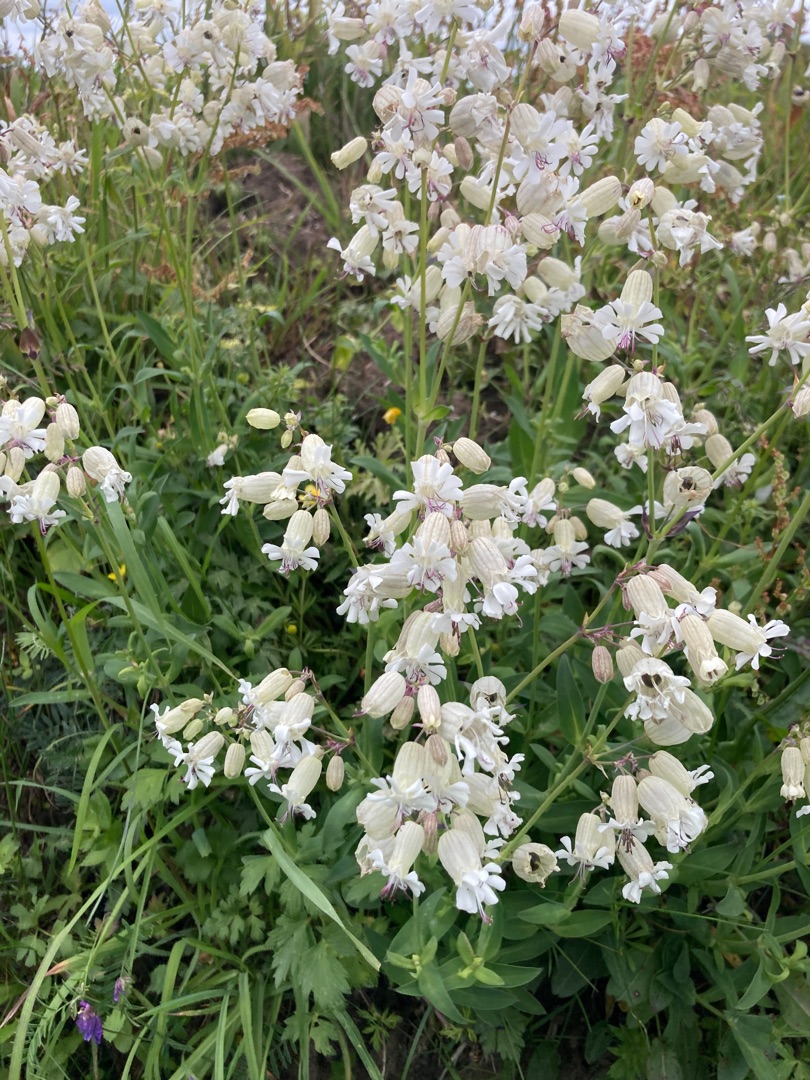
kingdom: Plantae
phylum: Tracheophyta
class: Magnoliopsida
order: Caryophyllales
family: Caryophyllaceae
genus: Silene
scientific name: Silene vulgaris
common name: Blæresmælde
